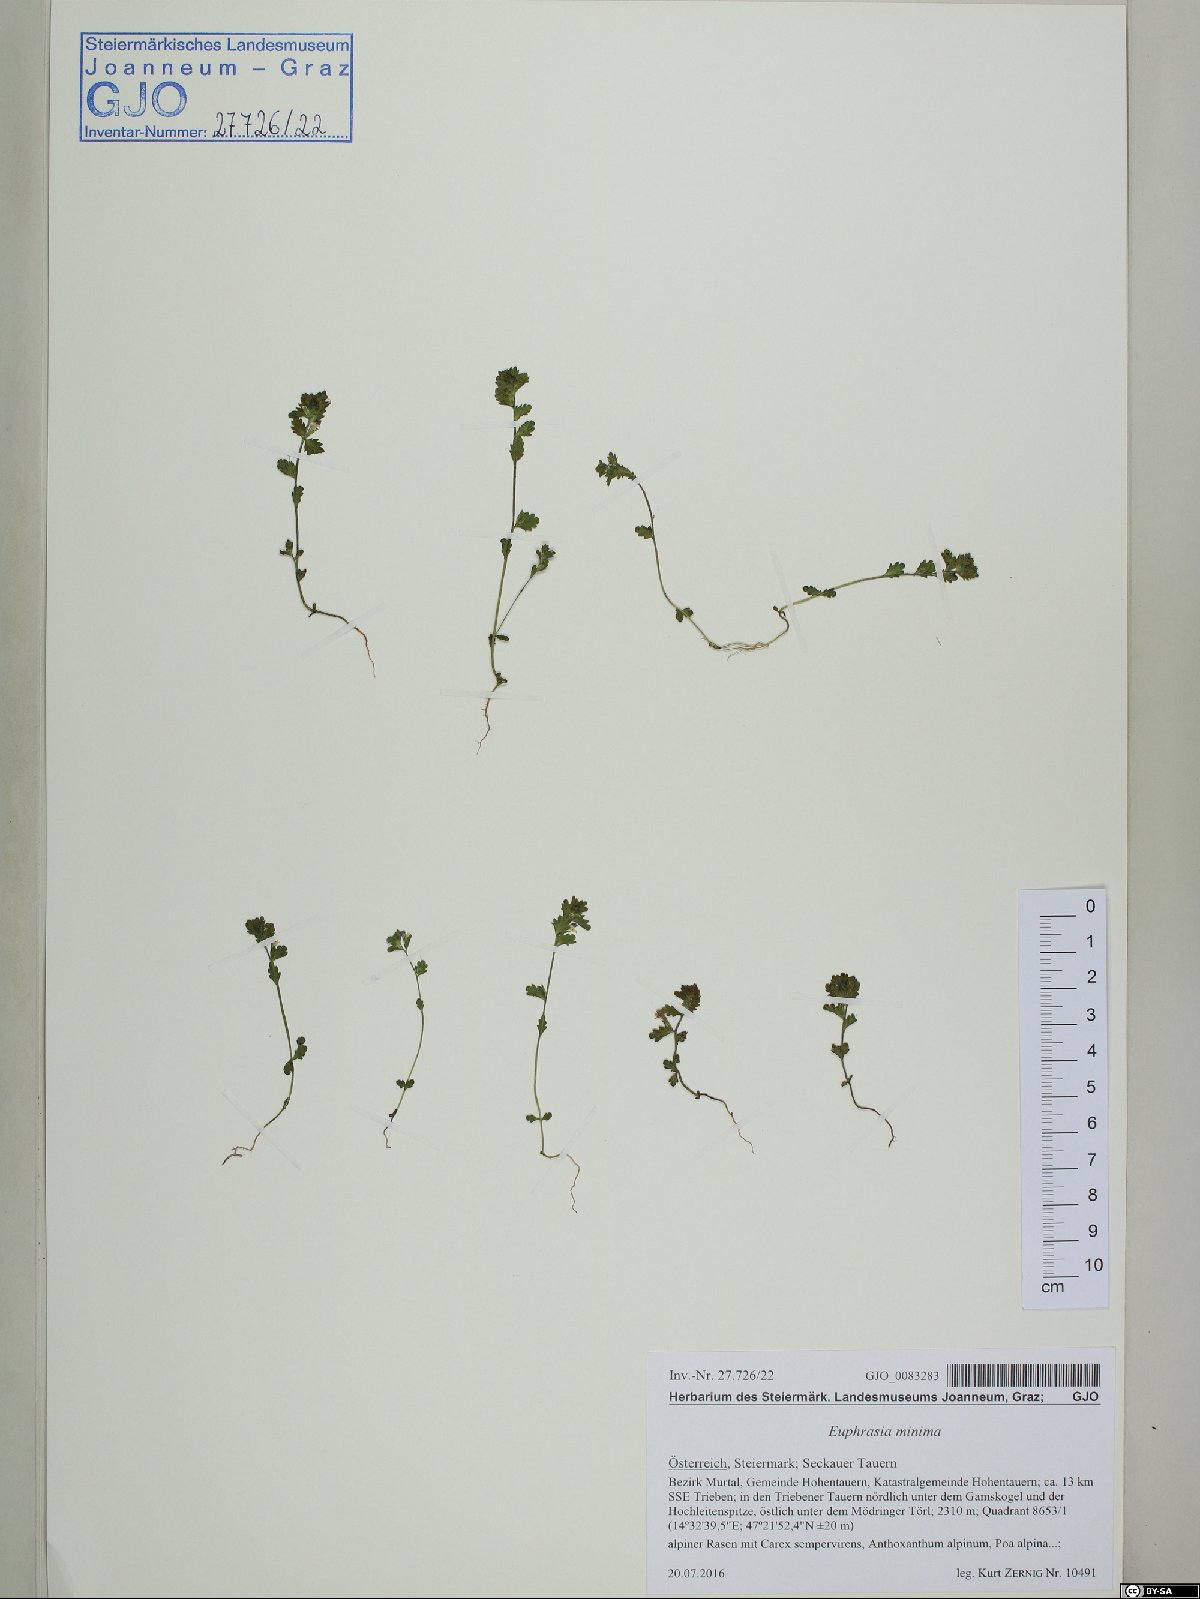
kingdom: Plantae
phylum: Tracheophyta
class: Magnoliopsida
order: Lamiales
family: Orobanchaceae
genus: Euphrasia
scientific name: Euphrasia minima
